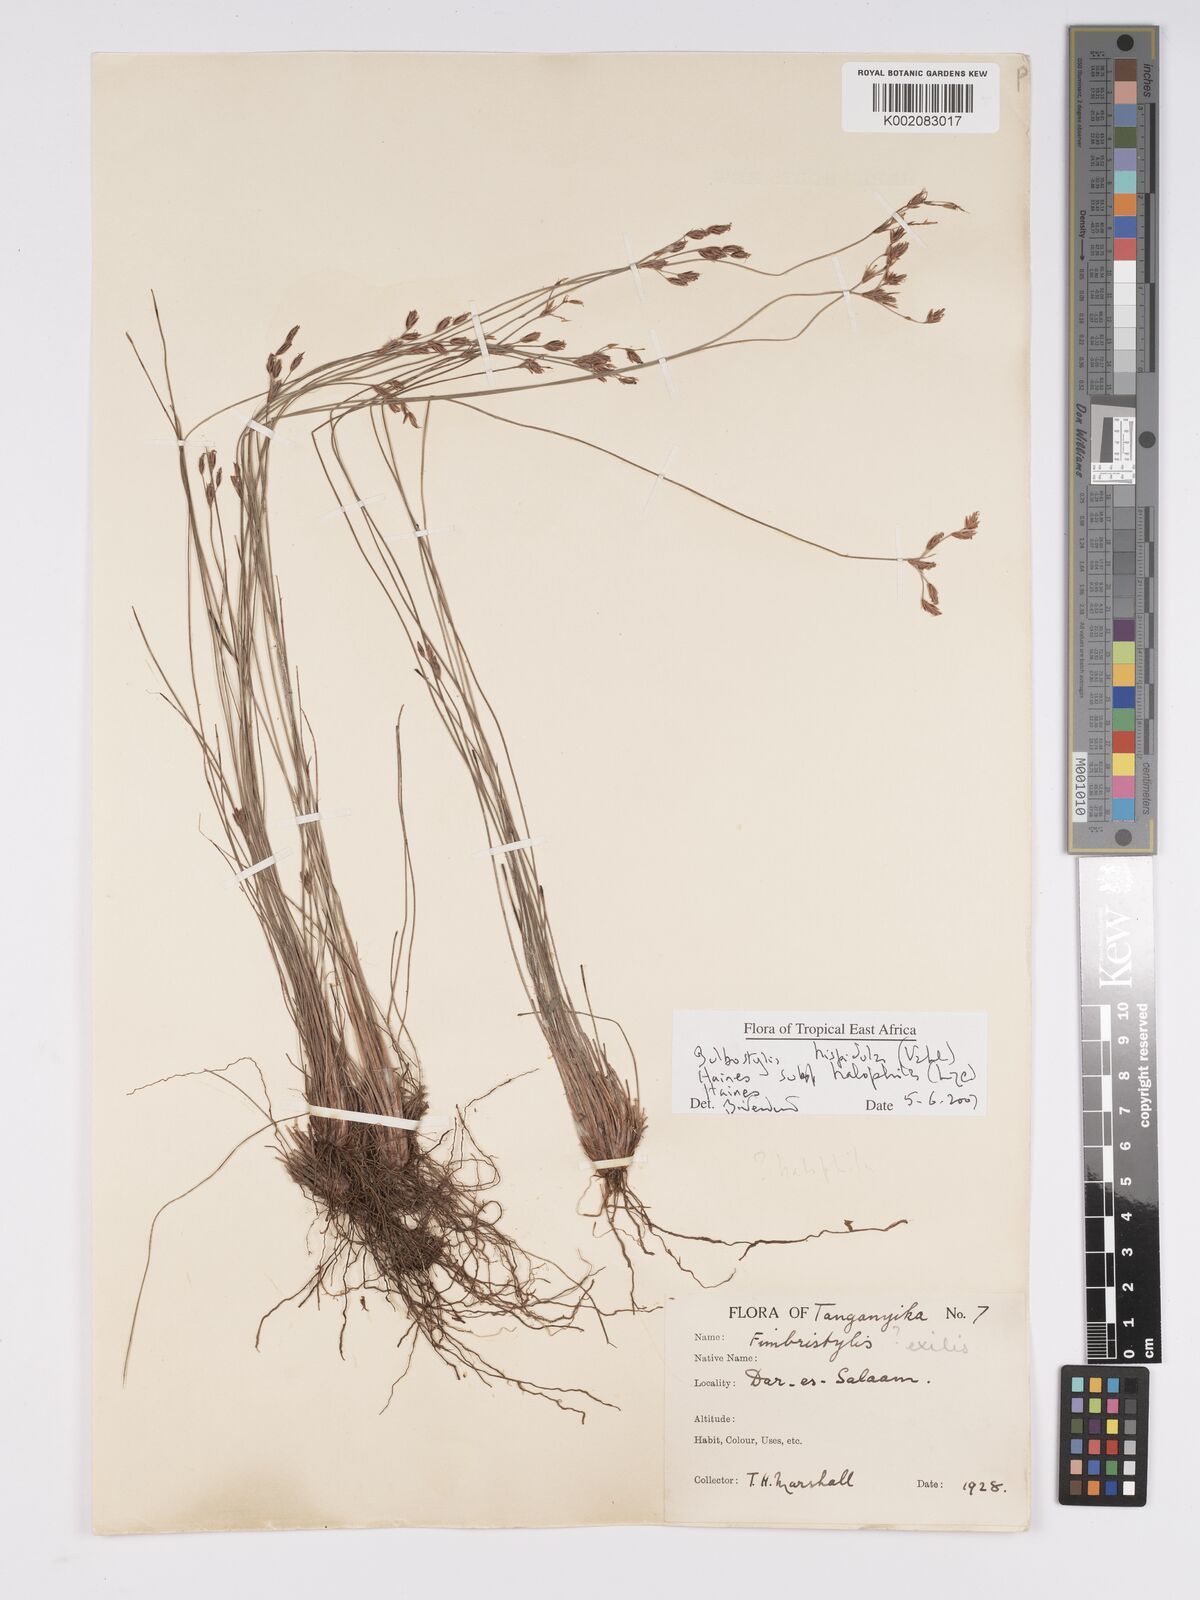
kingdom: Plantae
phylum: Tracheophyta
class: Liliopsida
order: Poales
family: Cyperaceae
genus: Bulbostylis
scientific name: Bulbostylis hispidula
